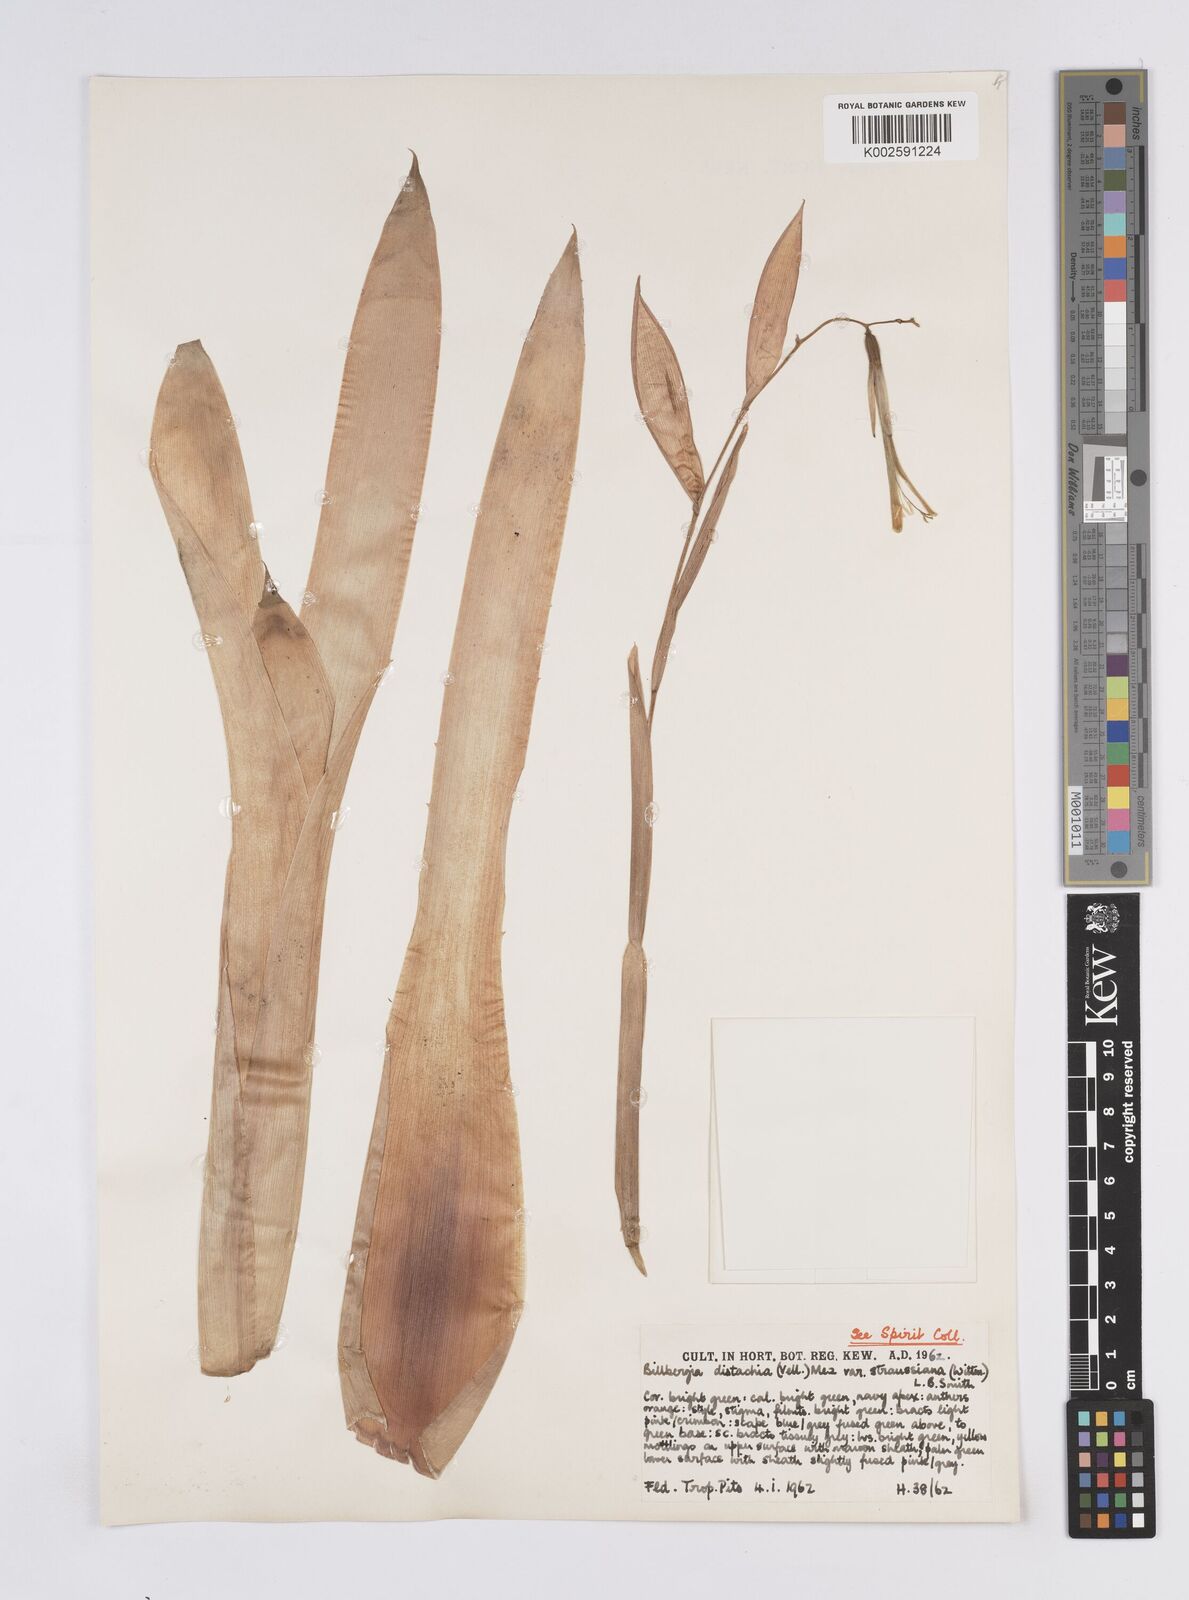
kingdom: Plantae
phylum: Tracheophyta
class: Liliopsida
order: Poales
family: Bromeliaceae
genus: Billbergia
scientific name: Billbergia distachia
